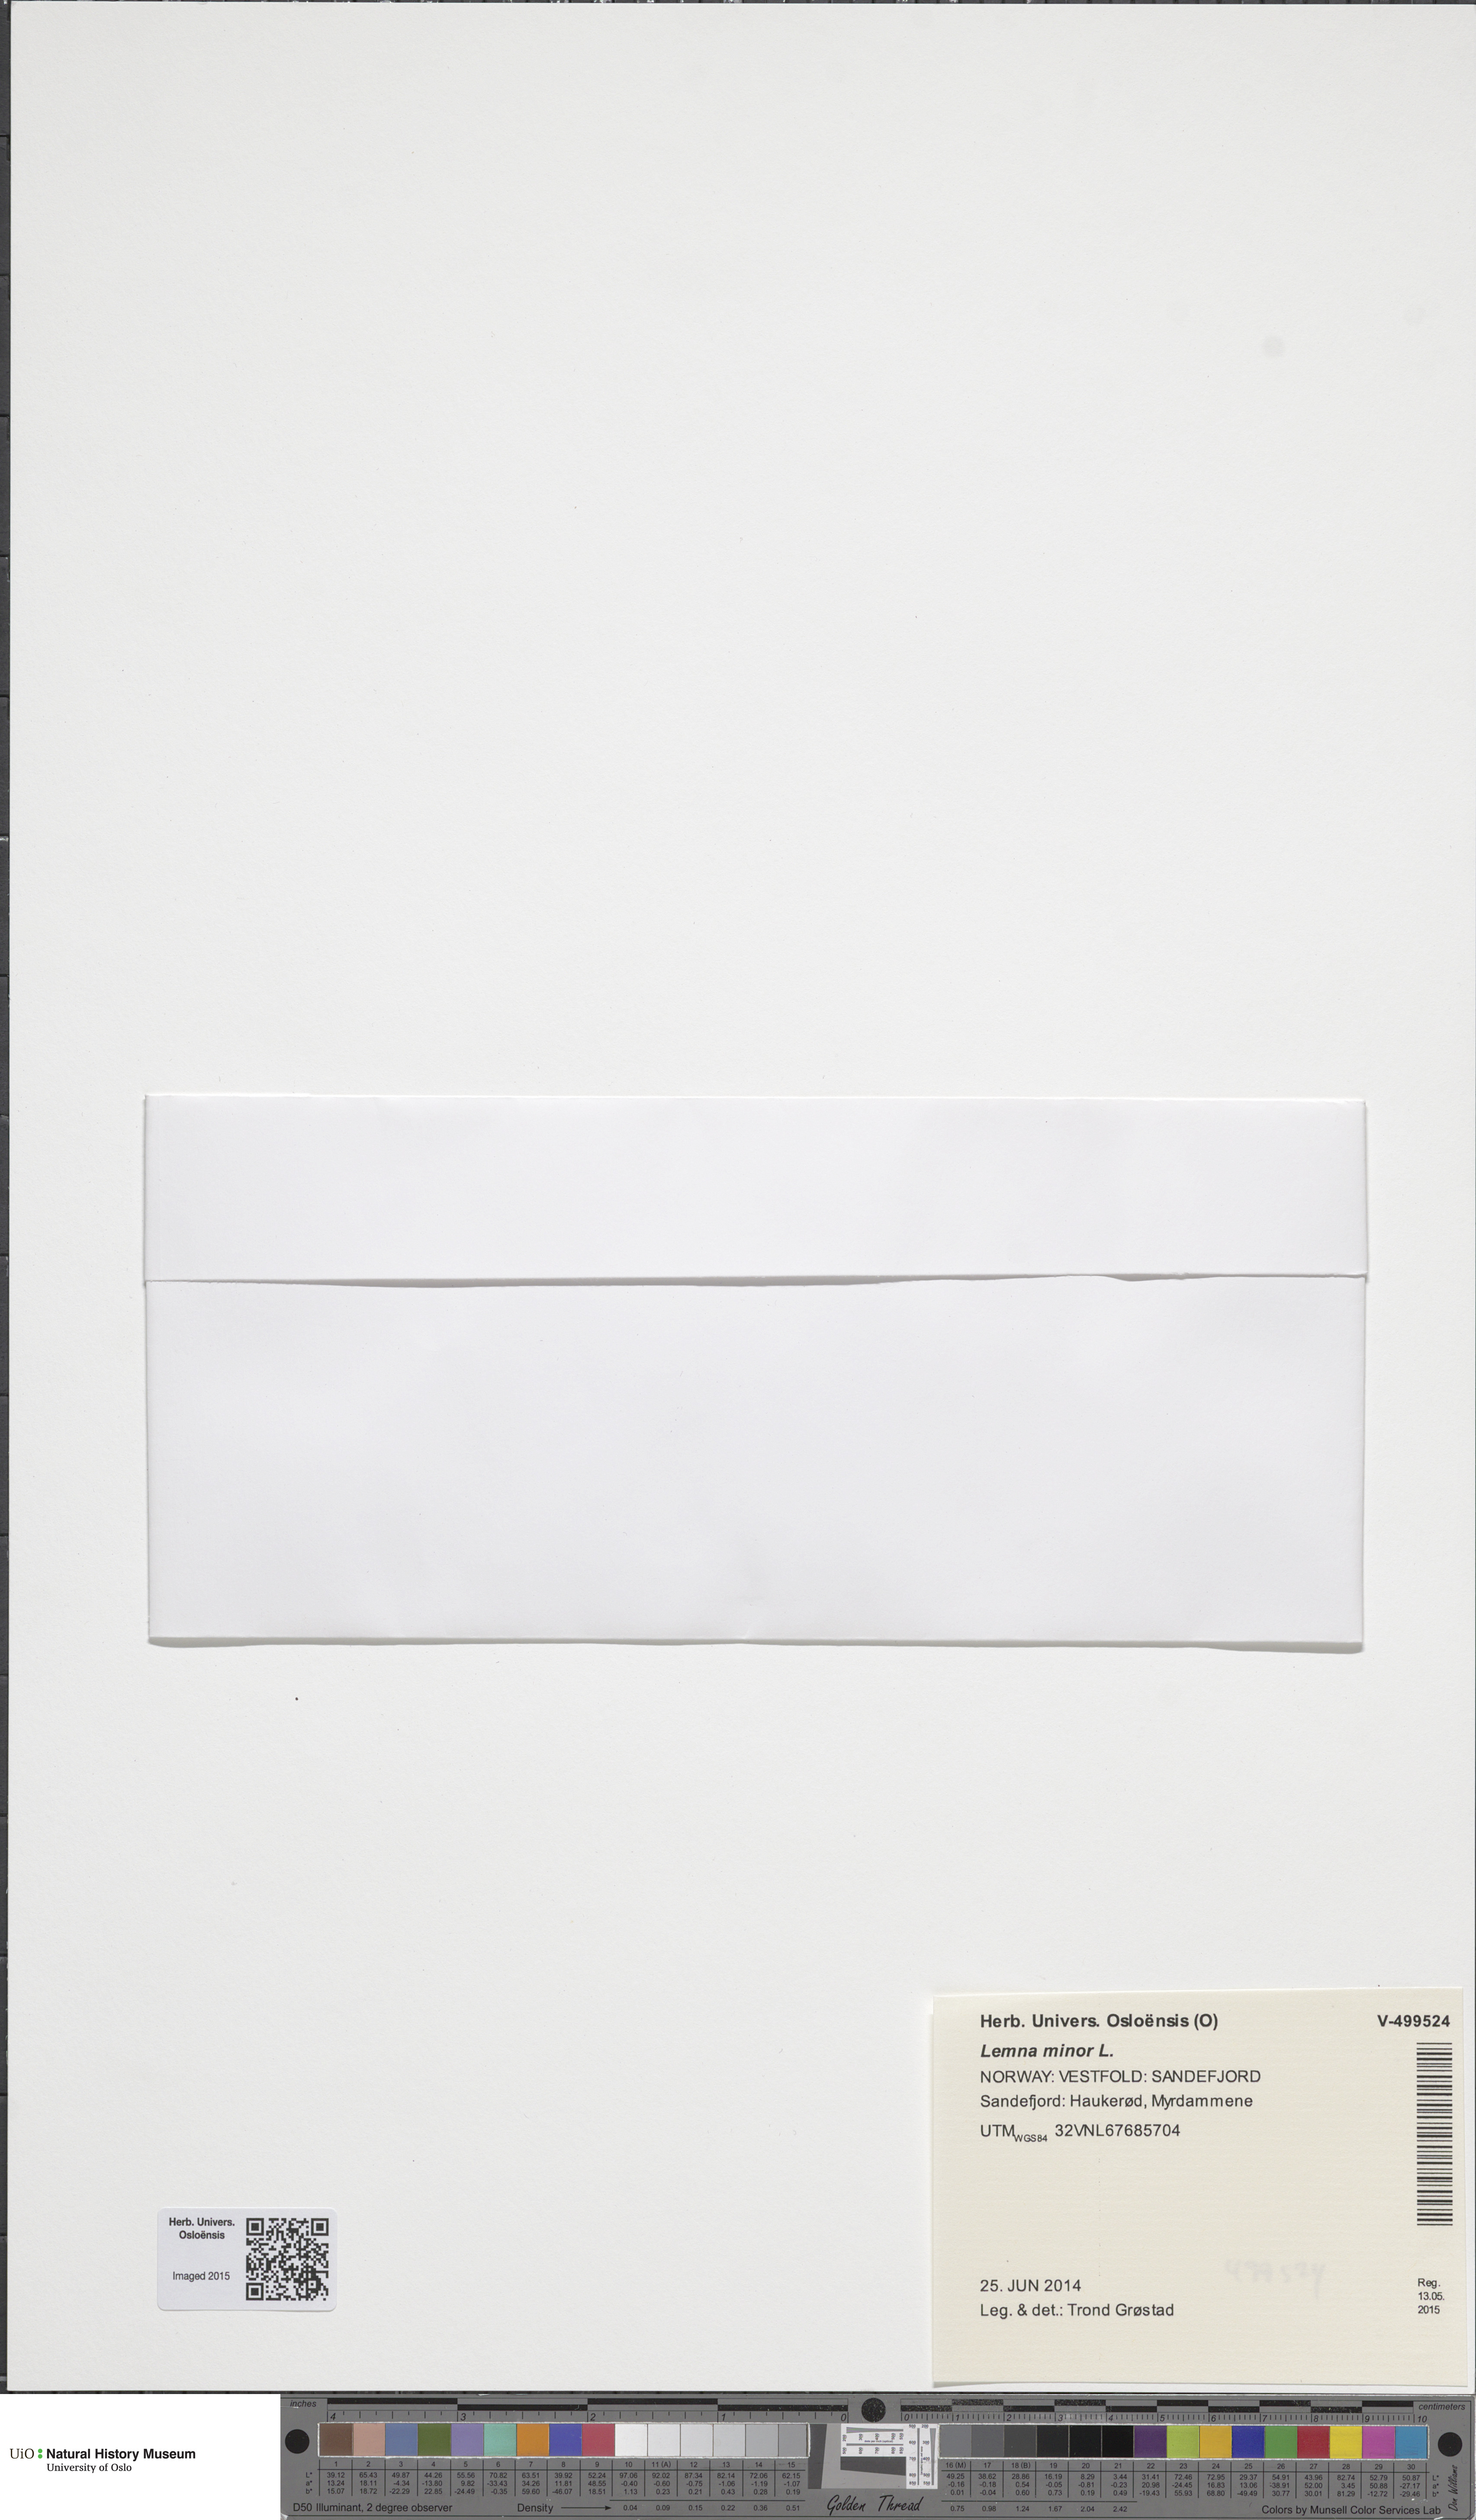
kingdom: Plantae
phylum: Tracheophyta
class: Liliopsida
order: Alismatales
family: Araceae
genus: Lemna
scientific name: Lemna minor
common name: Common duckweed
